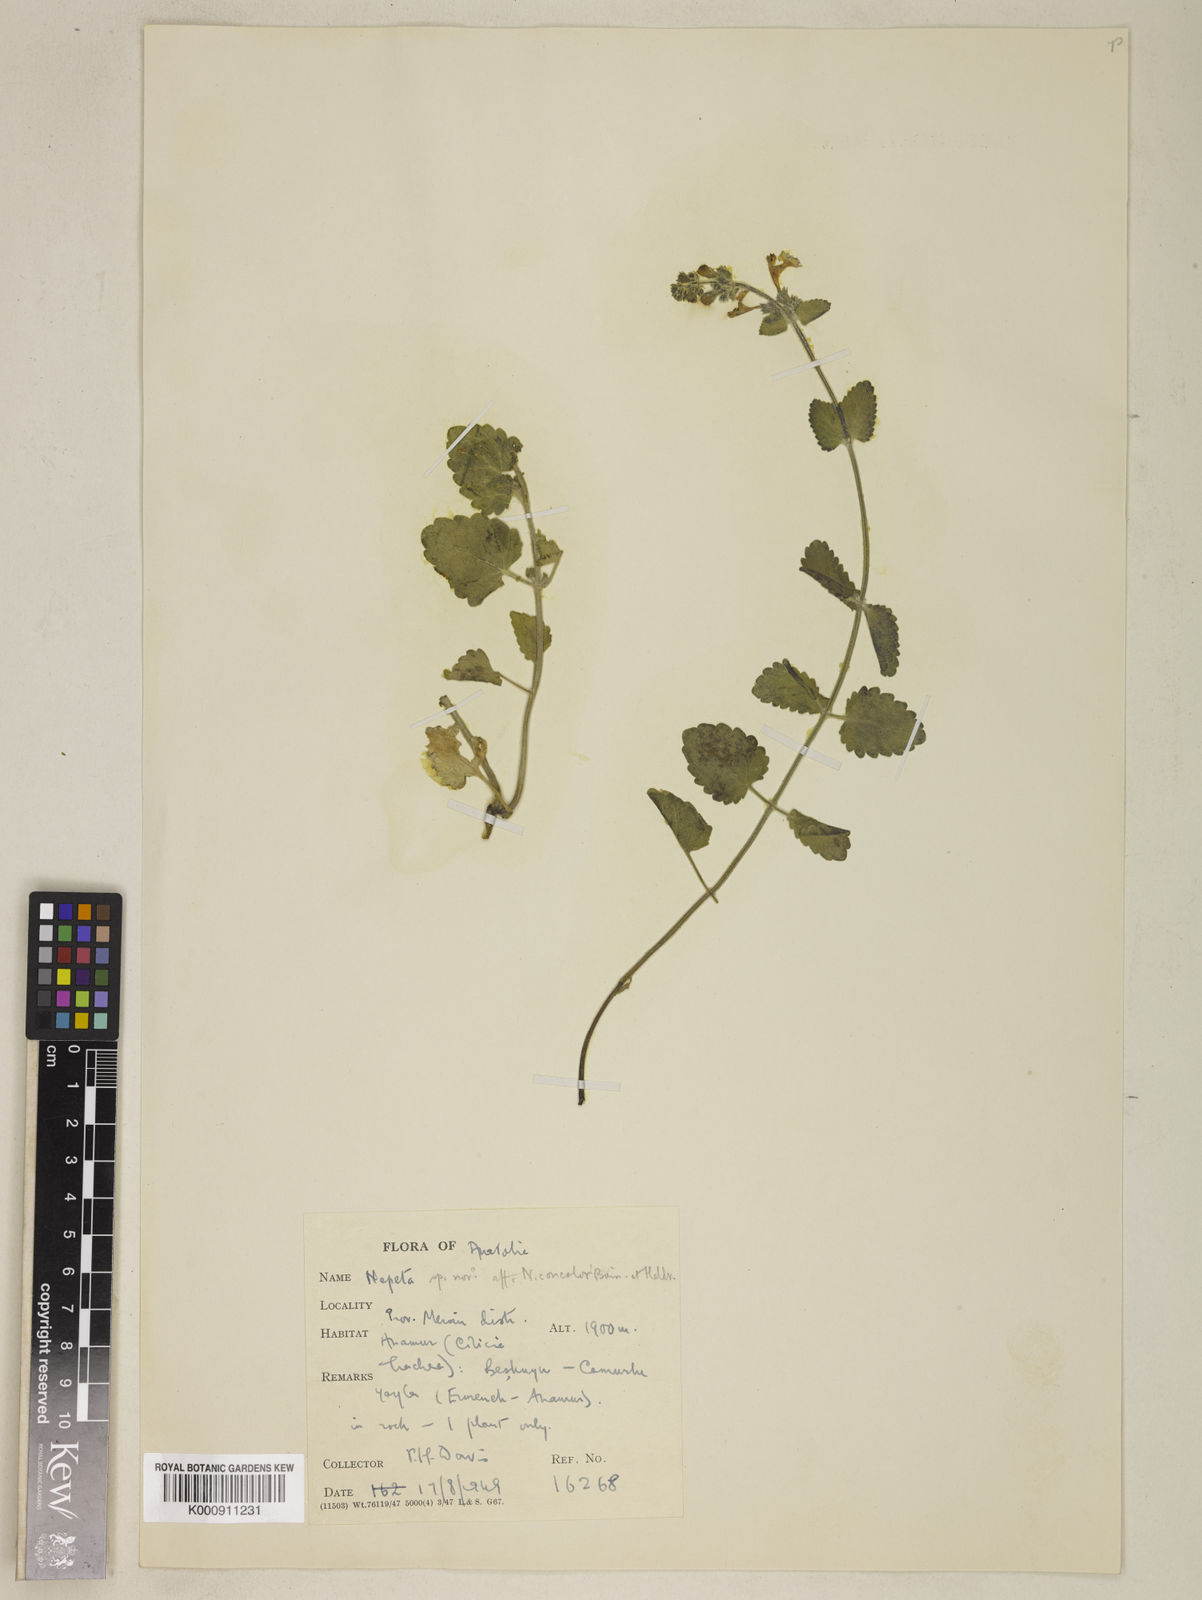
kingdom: Plantae
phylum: Tracheophyta
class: Magnoliopsida
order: Lamiales
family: Lamiaceae
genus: Nepeta
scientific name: Nepeta
